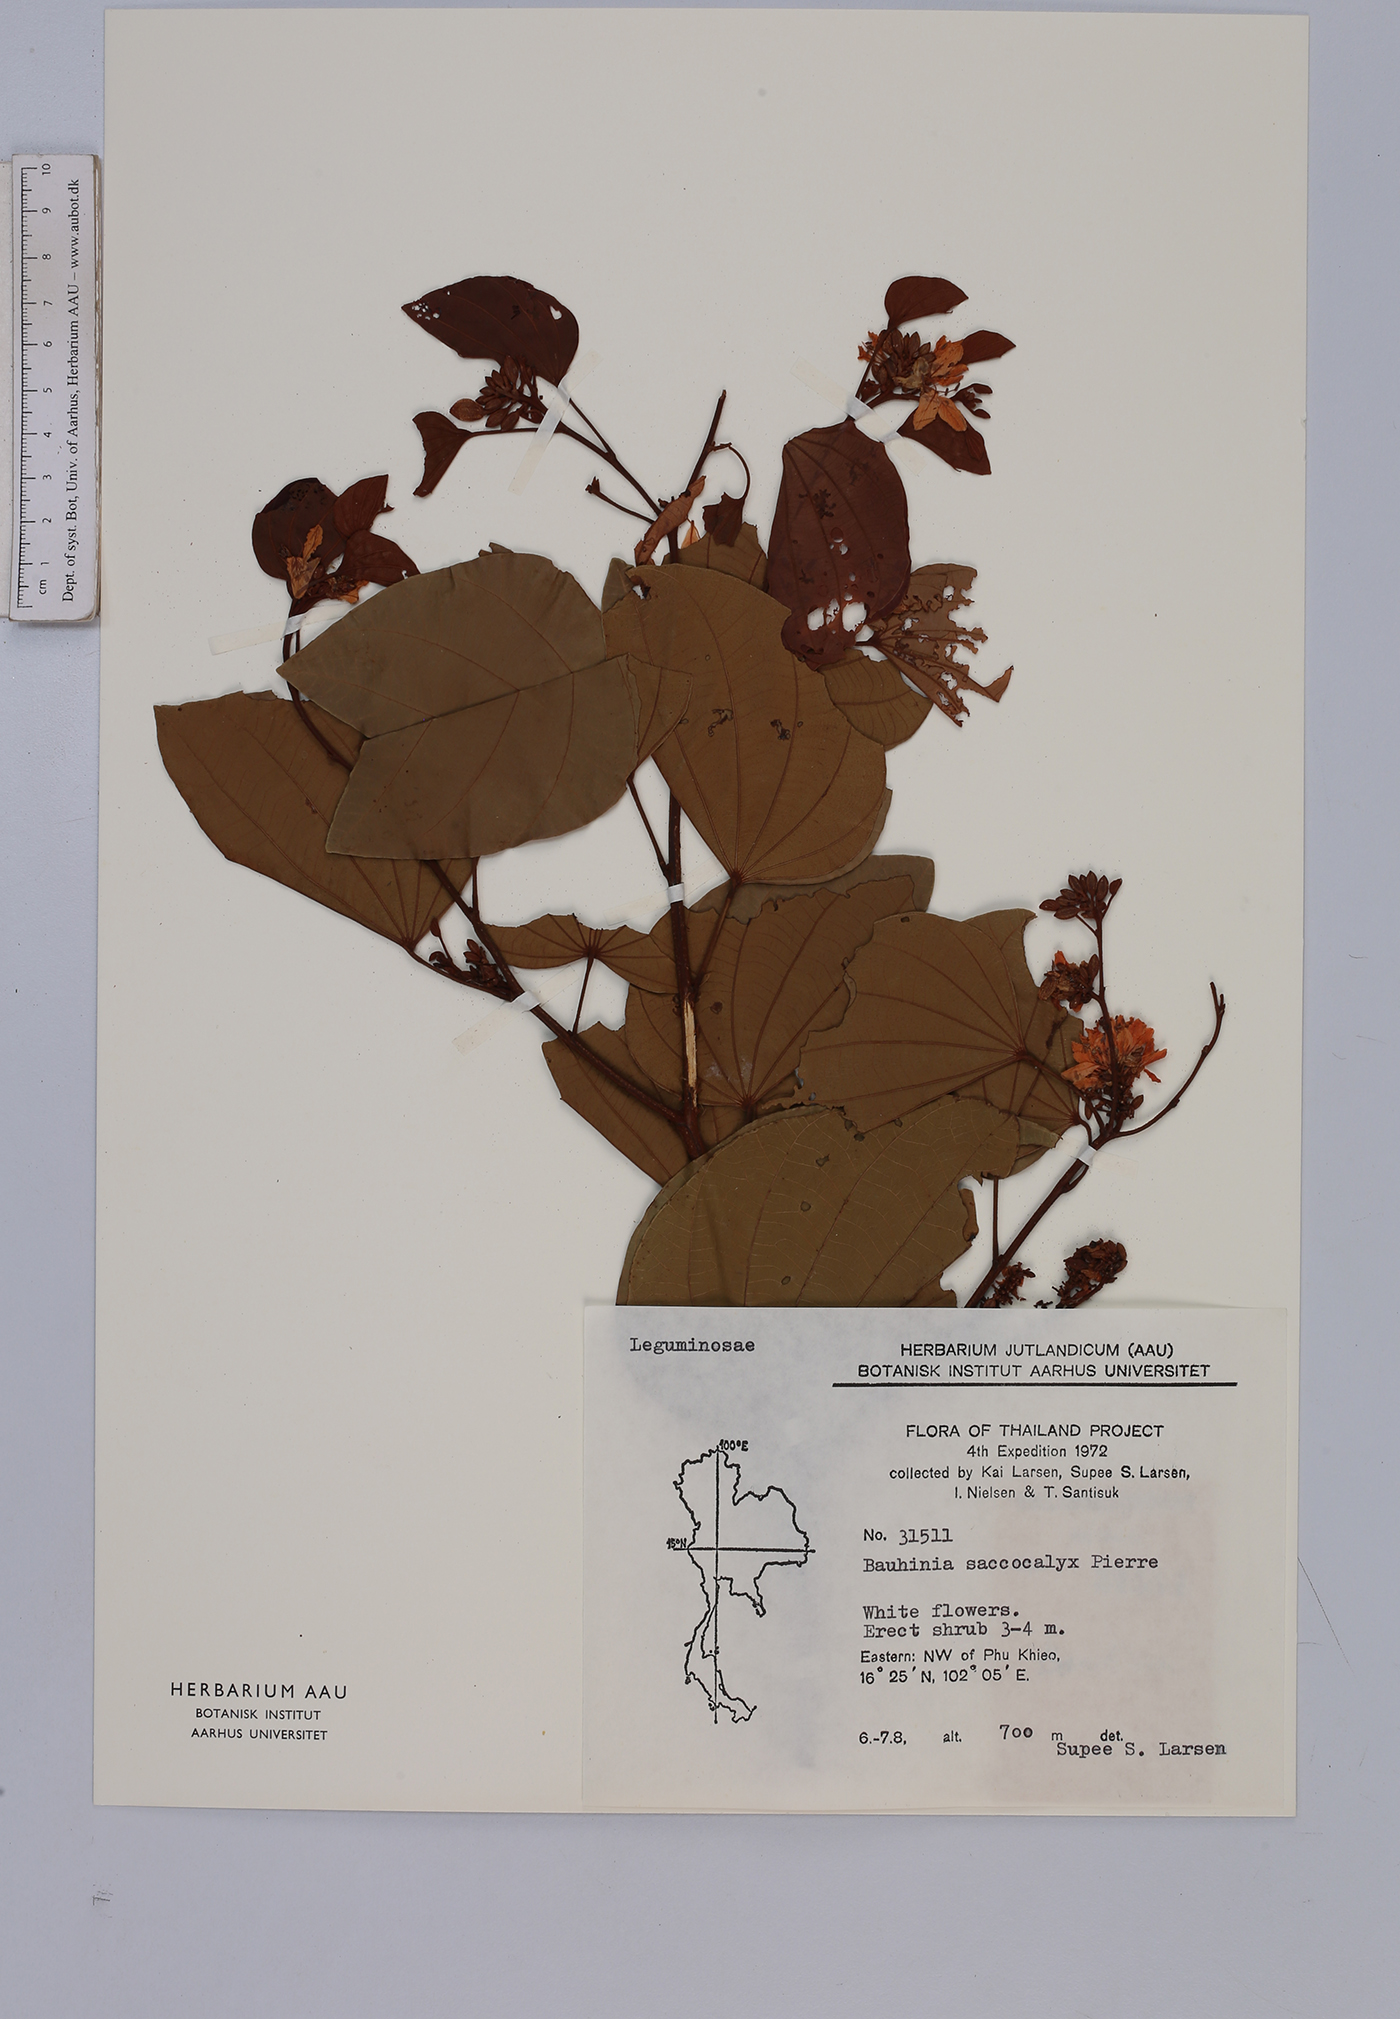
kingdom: Plantae
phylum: Tracheophyta
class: Magnoliopsida
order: Fabales
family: Fabaceae
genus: Bauhinia
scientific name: Bauhinia saccocalyx
